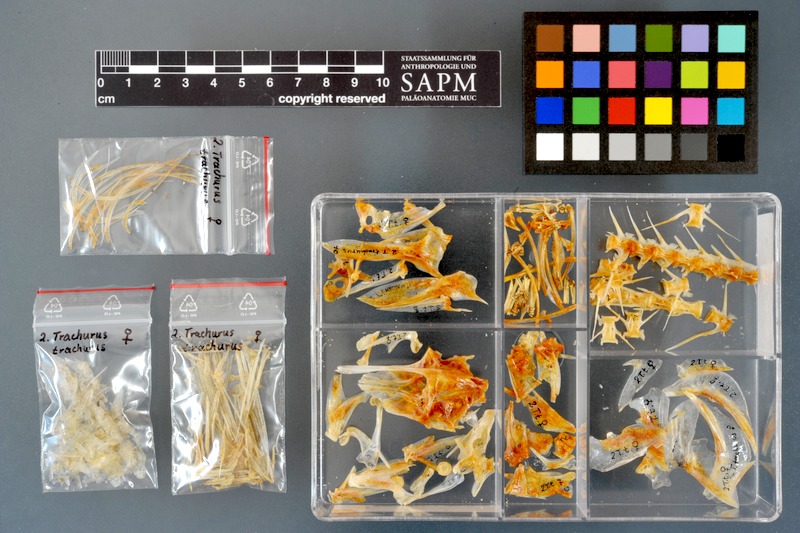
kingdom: Animalia
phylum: Chordata
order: Perciformes
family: Carangidae
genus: Trachurus
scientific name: Trachurus trachurus
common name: Horse mackerel
